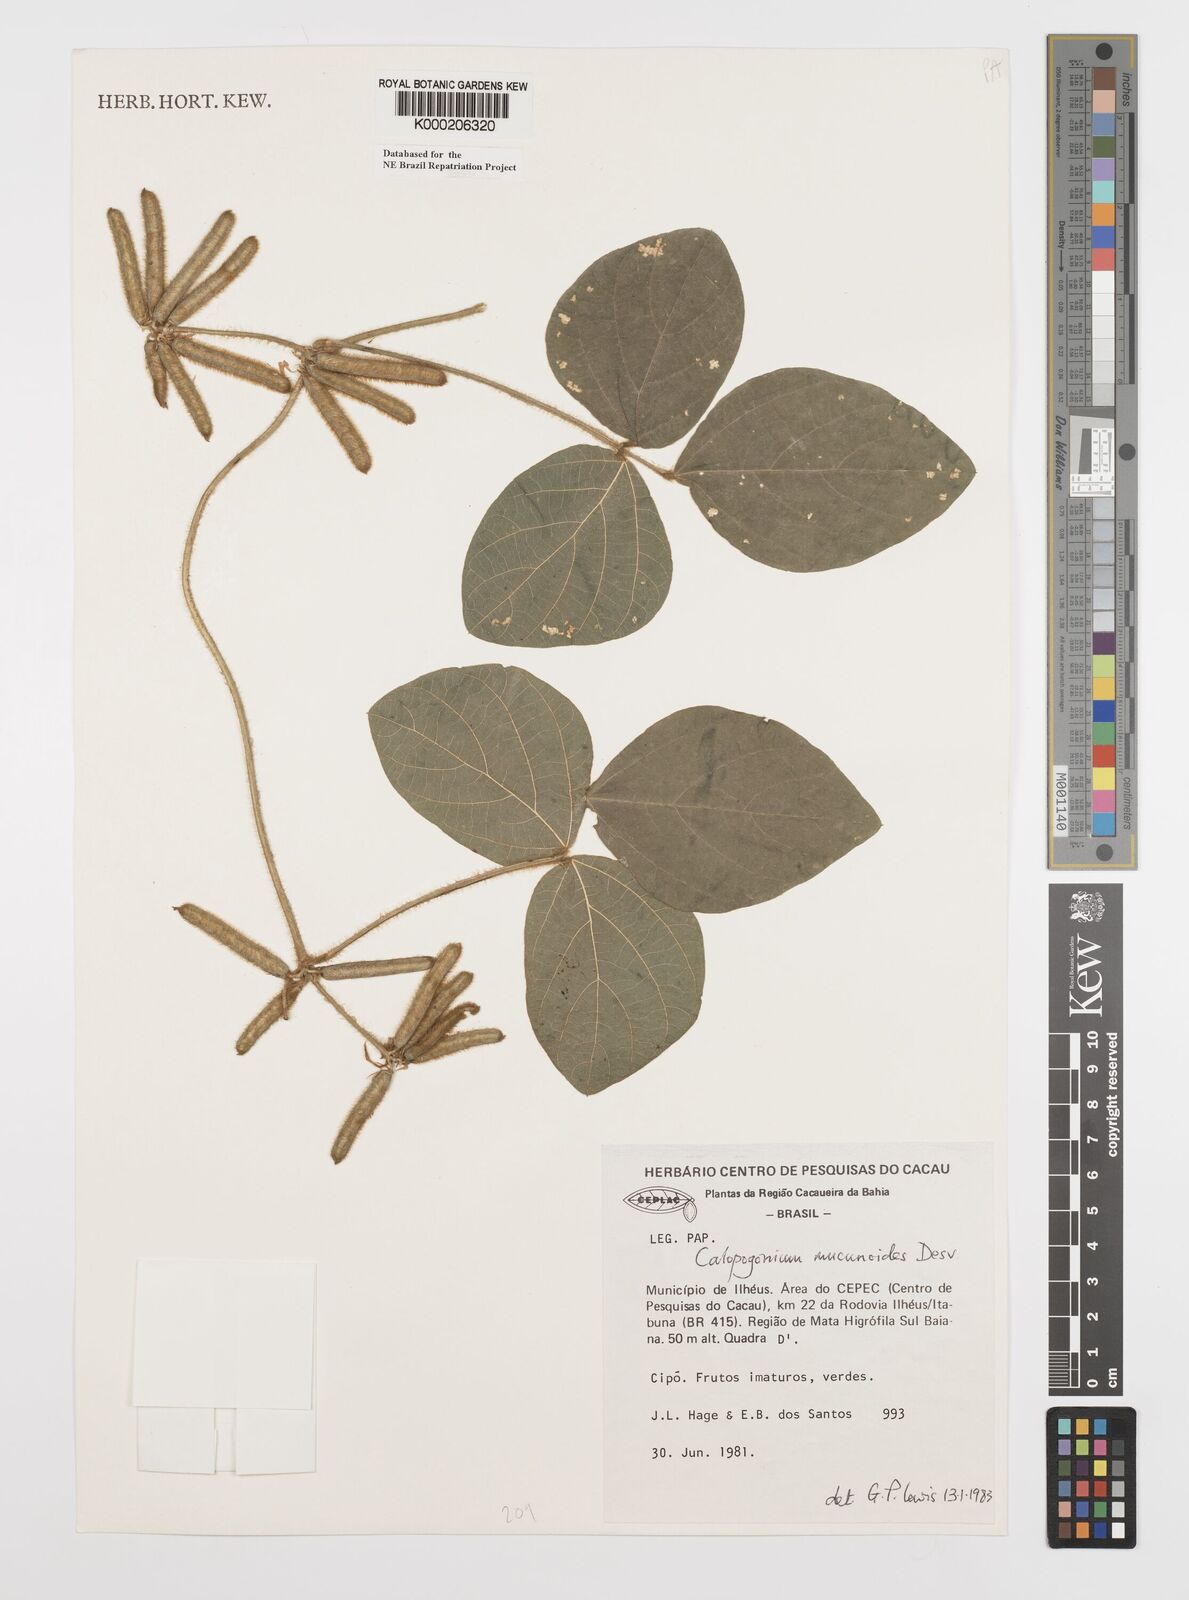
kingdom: Plantae
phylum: Tracheophyta
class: Magnoliopsida
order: Fabales
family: Fabaceae
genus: Calopogonium
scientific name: Calopogonium mucunoides
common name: Calopo
